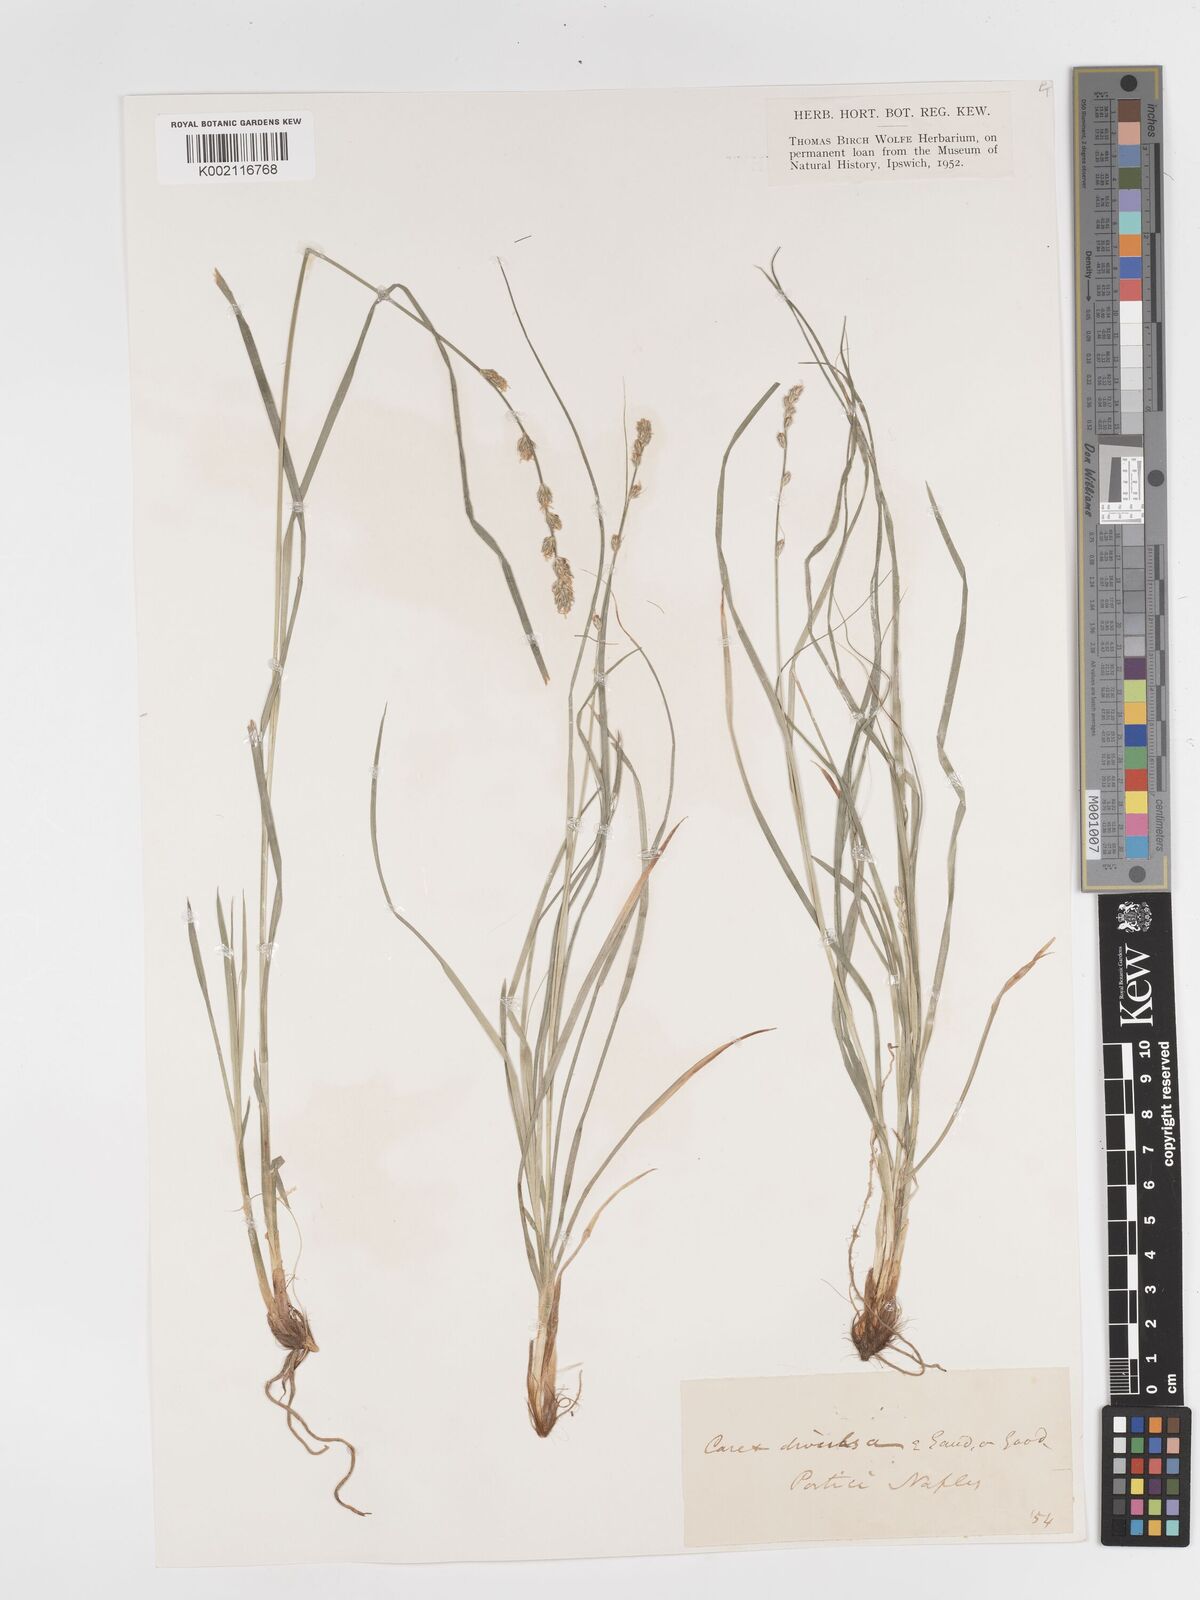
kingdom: Plantae
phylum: Tracheophyta
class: Liliopsida
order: Poales
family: Cyperaceae
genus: Carex
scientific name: Carex divulsa
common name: Grassland sedge
